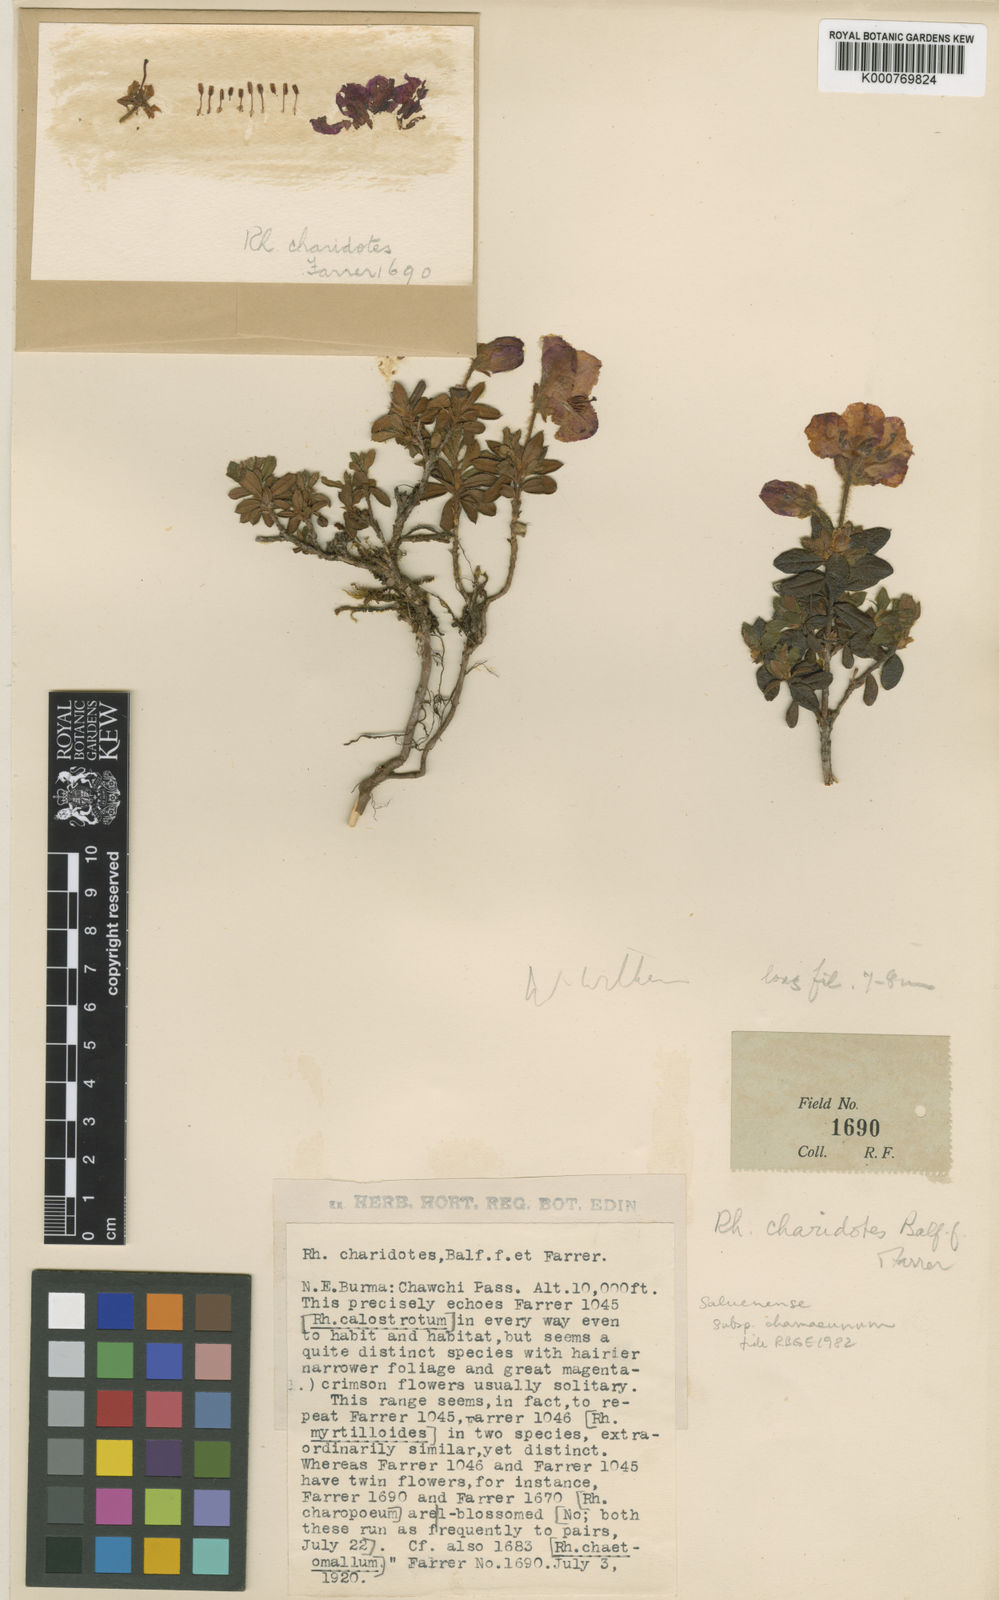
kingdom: Plantae
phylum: Tracheophyta
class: Magnoliopsida
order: Ericales
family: Ericaceae
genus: Rhododendron
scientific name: Rhododendron saluenense
